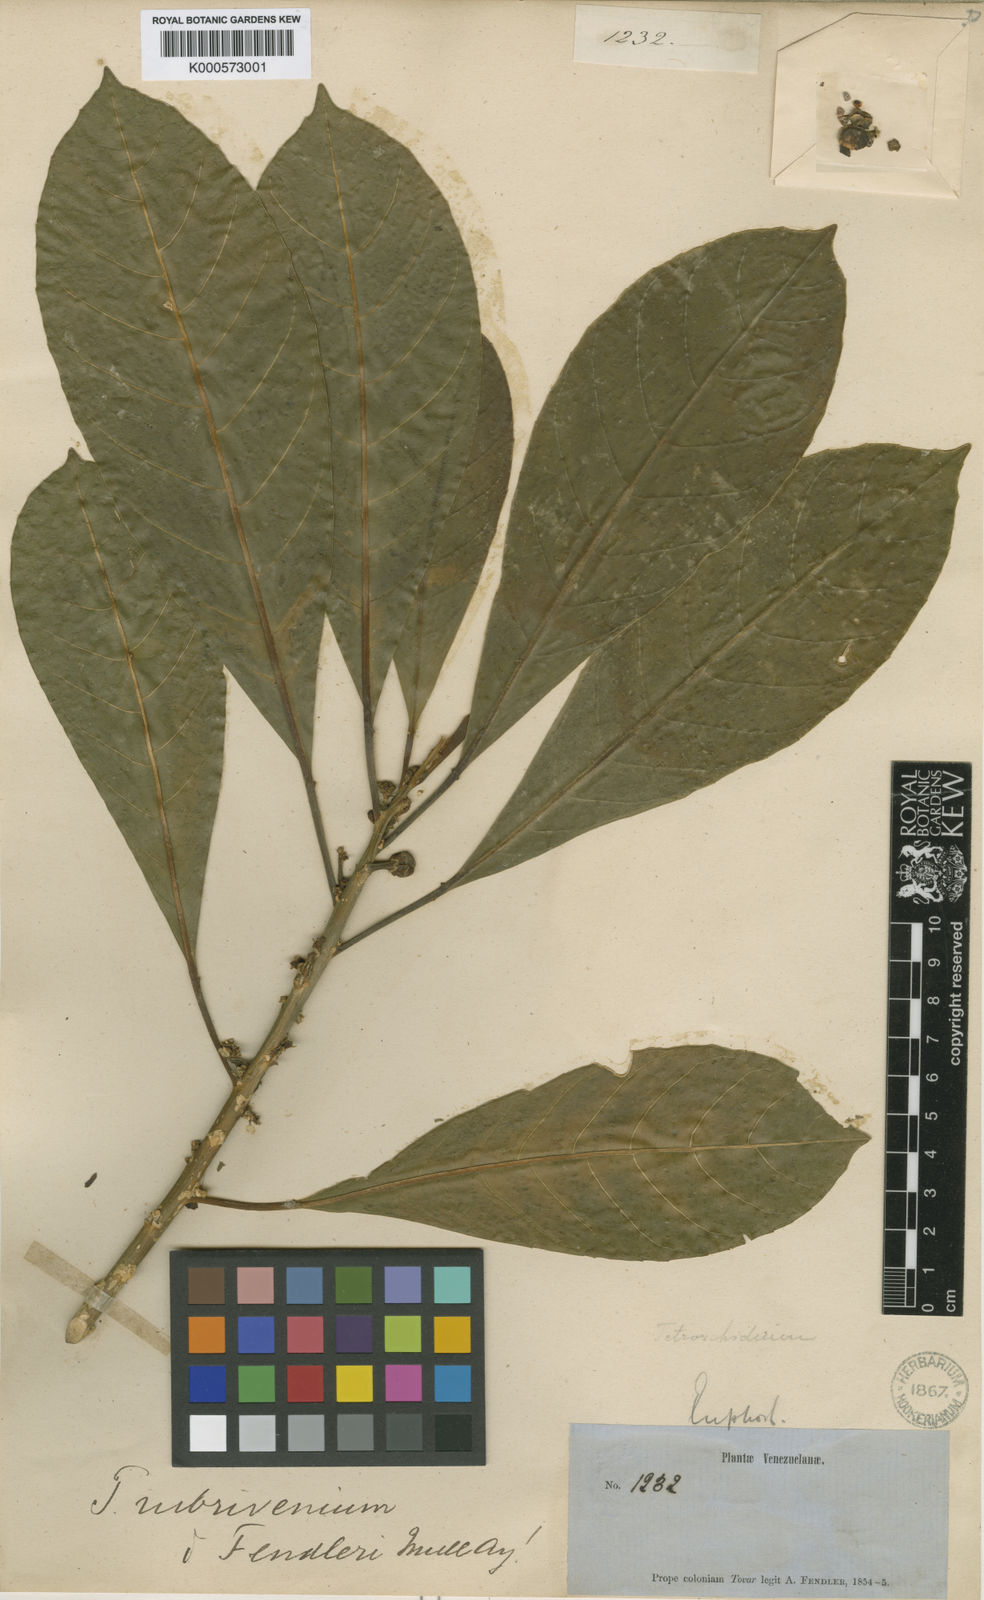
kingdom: Plantae
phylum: Tracheophyta
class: Magnoliopsida
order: Malpighiales
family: Euphorbiaceae
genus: Tetrorchidium
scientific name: Tetrorchidium rubrivenium
